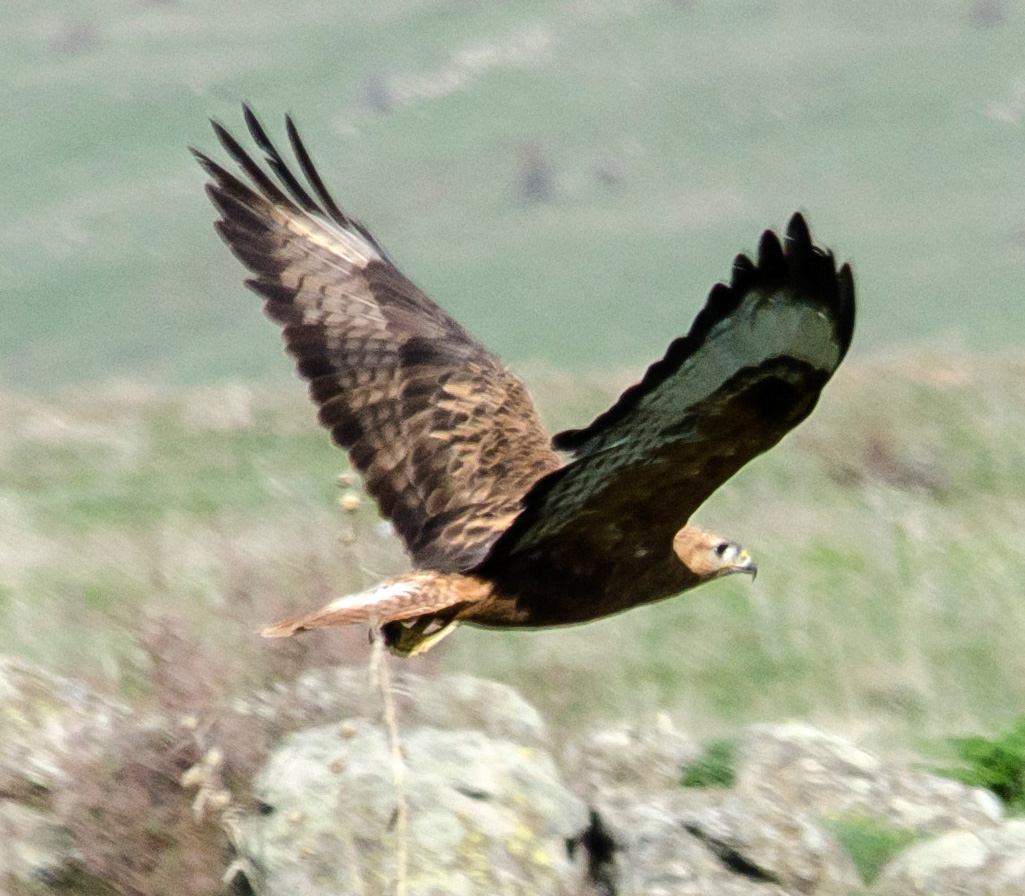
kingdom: Animalia
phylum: Chordata
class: Aves
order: Accipitriformes
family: Accipitridae
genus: Buteo
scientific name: Buteo rufinus
